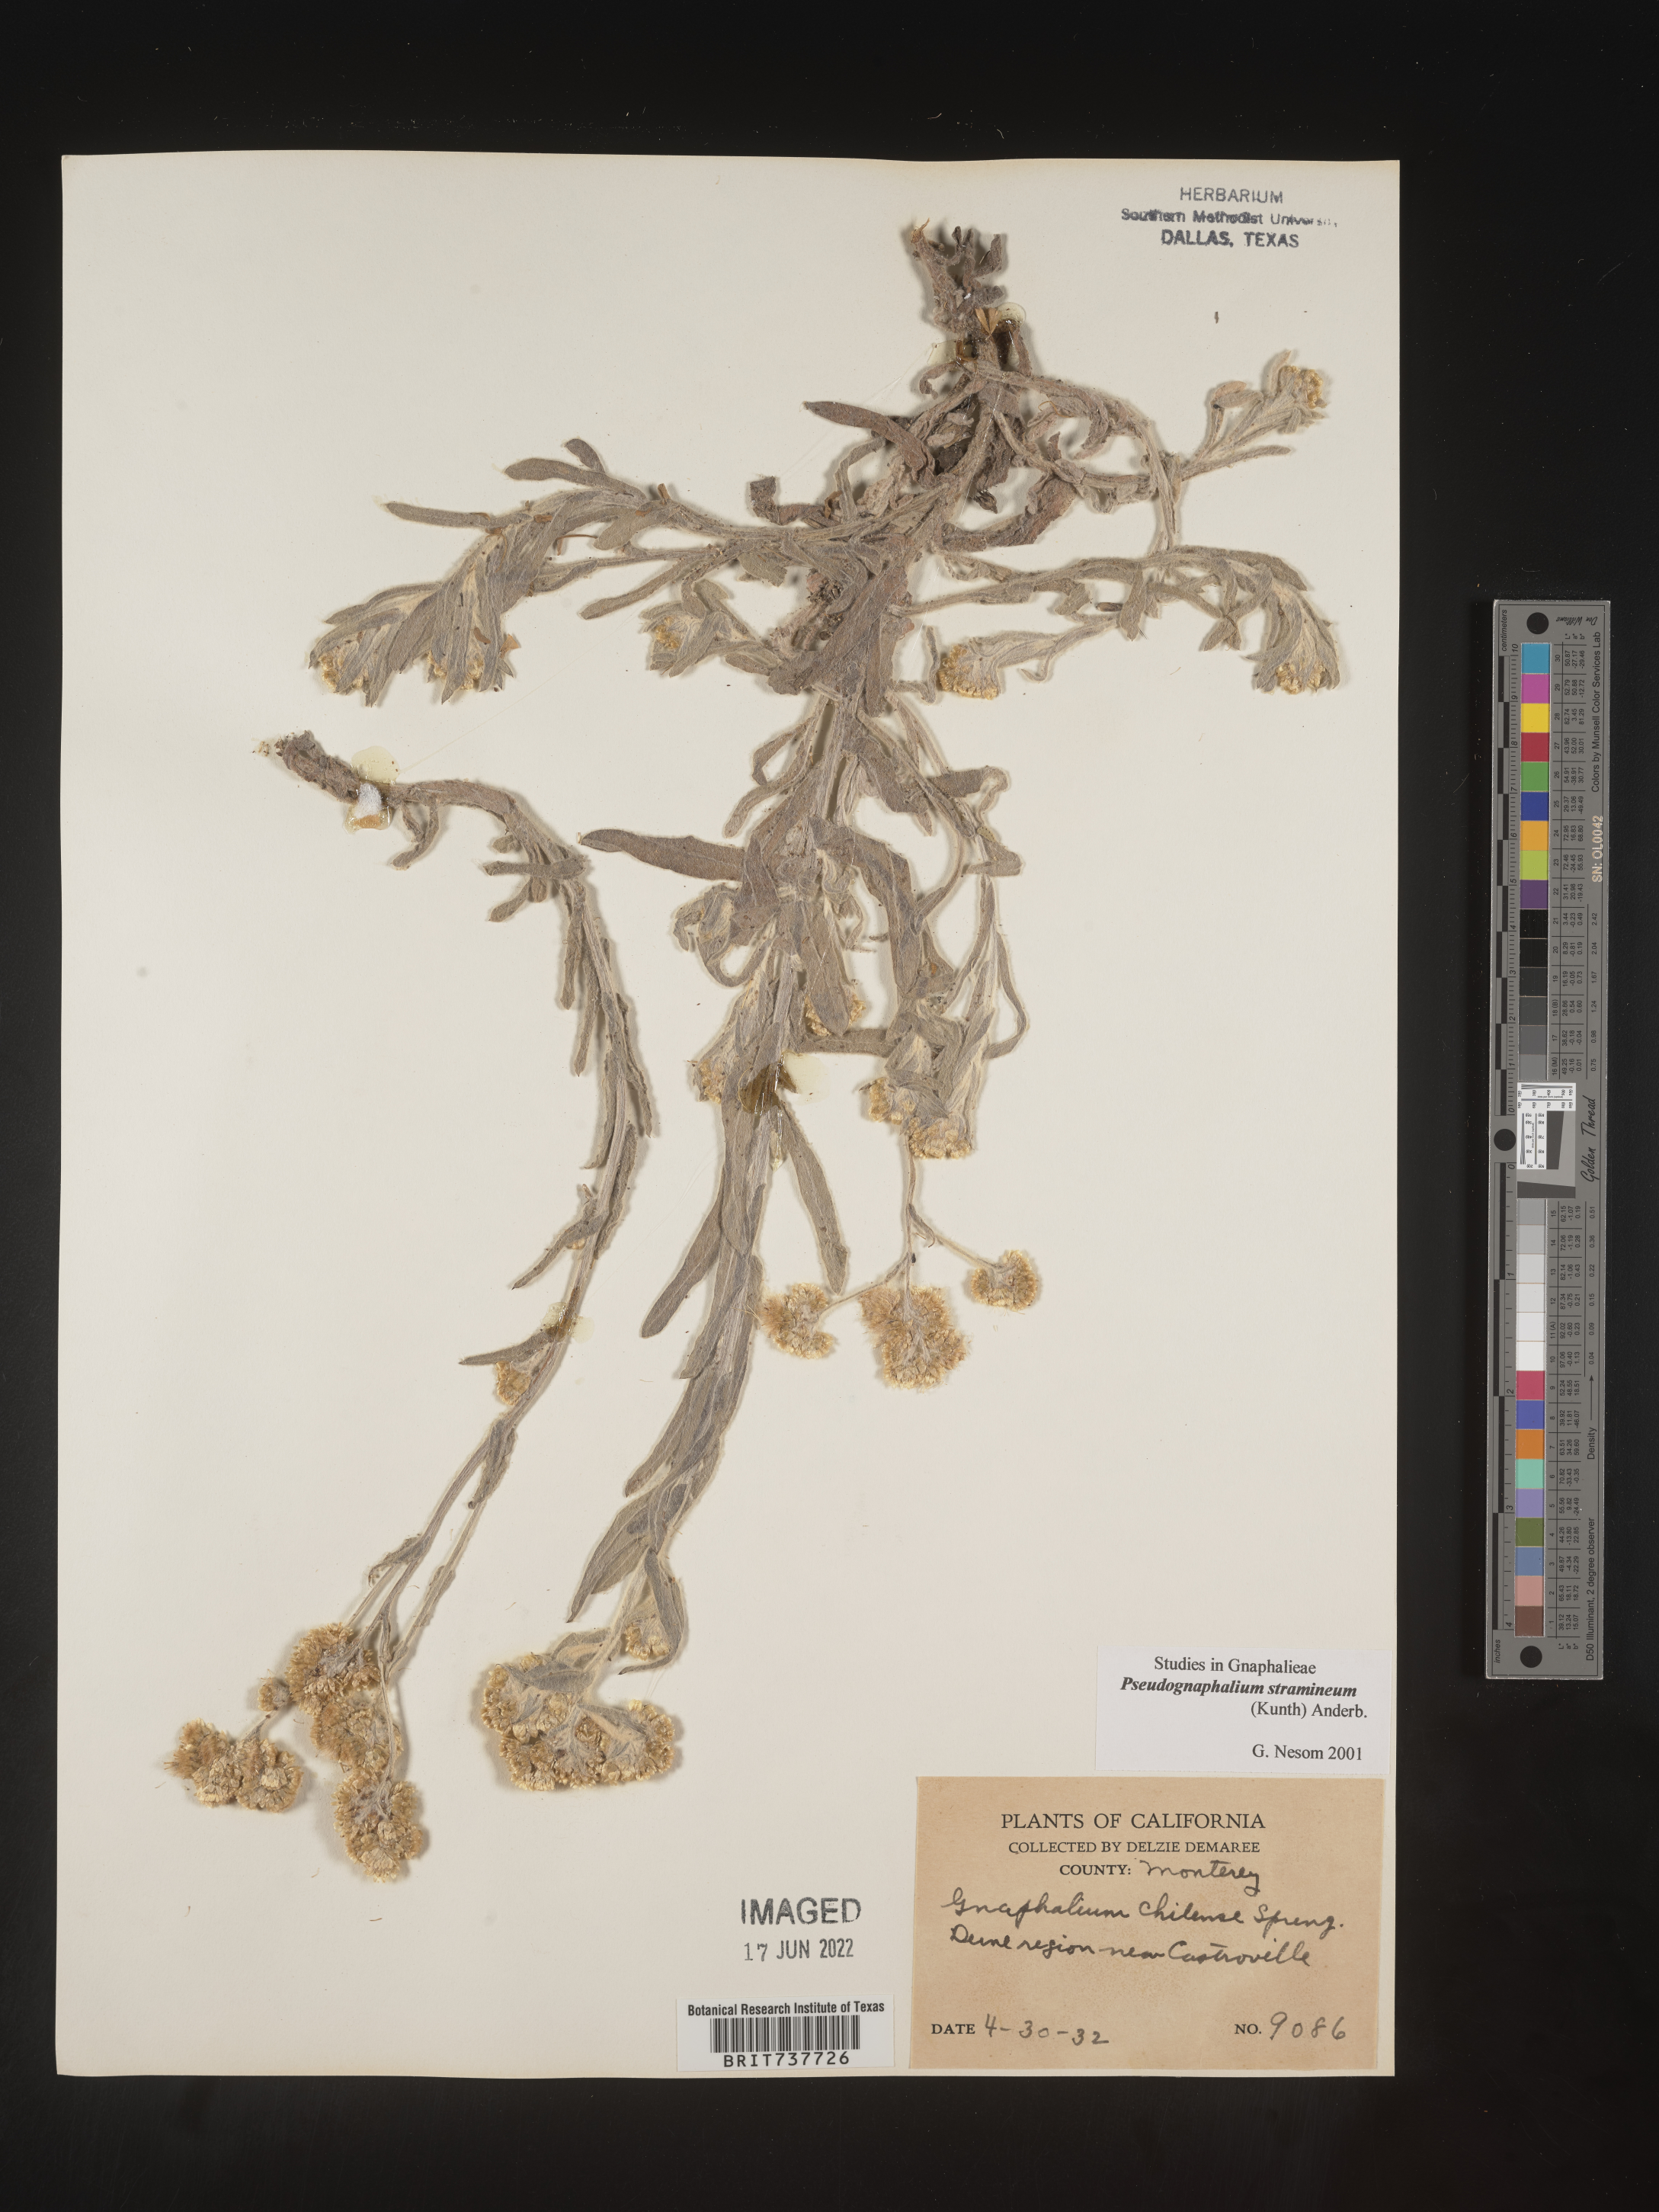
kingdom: Plantae
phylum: Tracheophyta
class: Magnoliopsida
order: Asterales
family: Asteraceae
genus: Pseudognaphalium
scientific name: Pseudognaphalium stramineum
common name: Cotton-batting-plant
